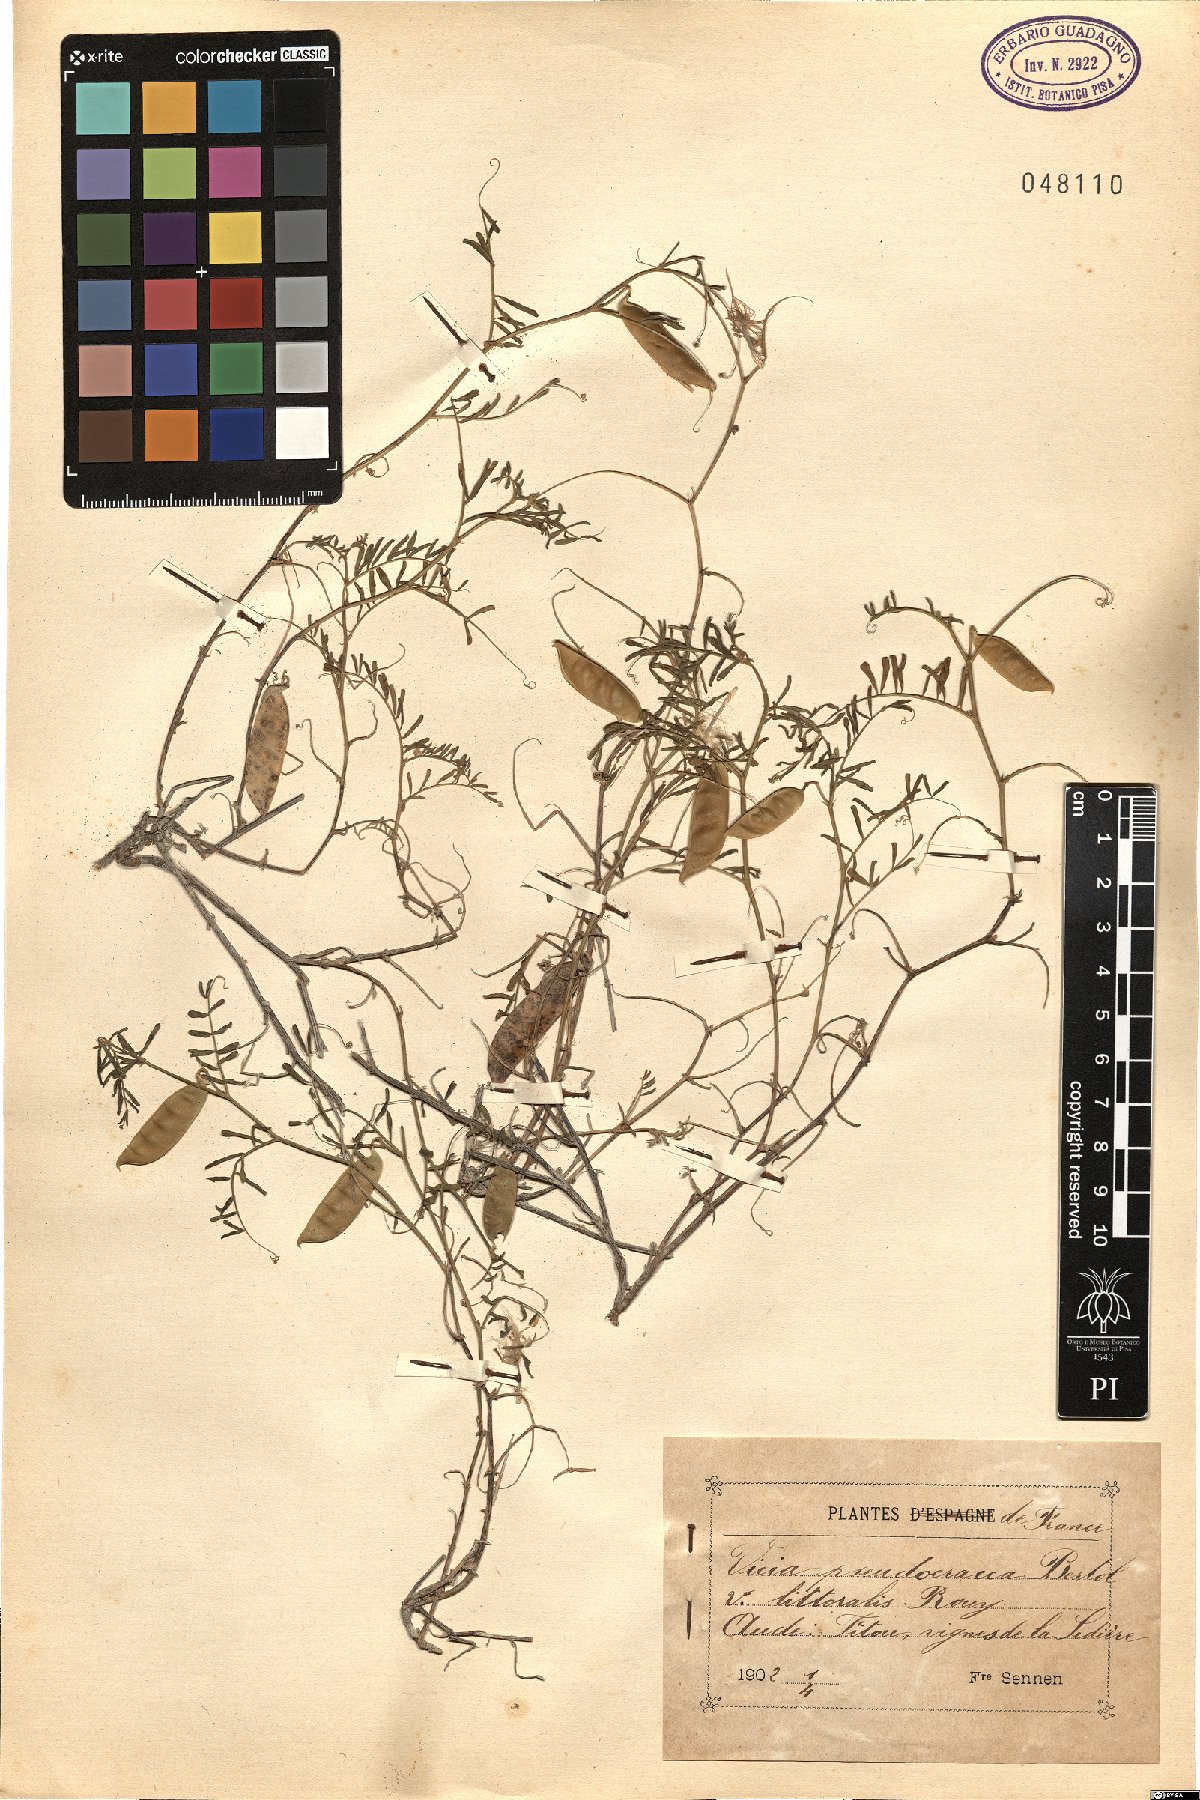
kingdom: Plantae
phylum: Tracheophyta
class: Magnoliopsida
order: Fabales
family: Fabaceae
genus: Vicia
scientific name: Vicia
